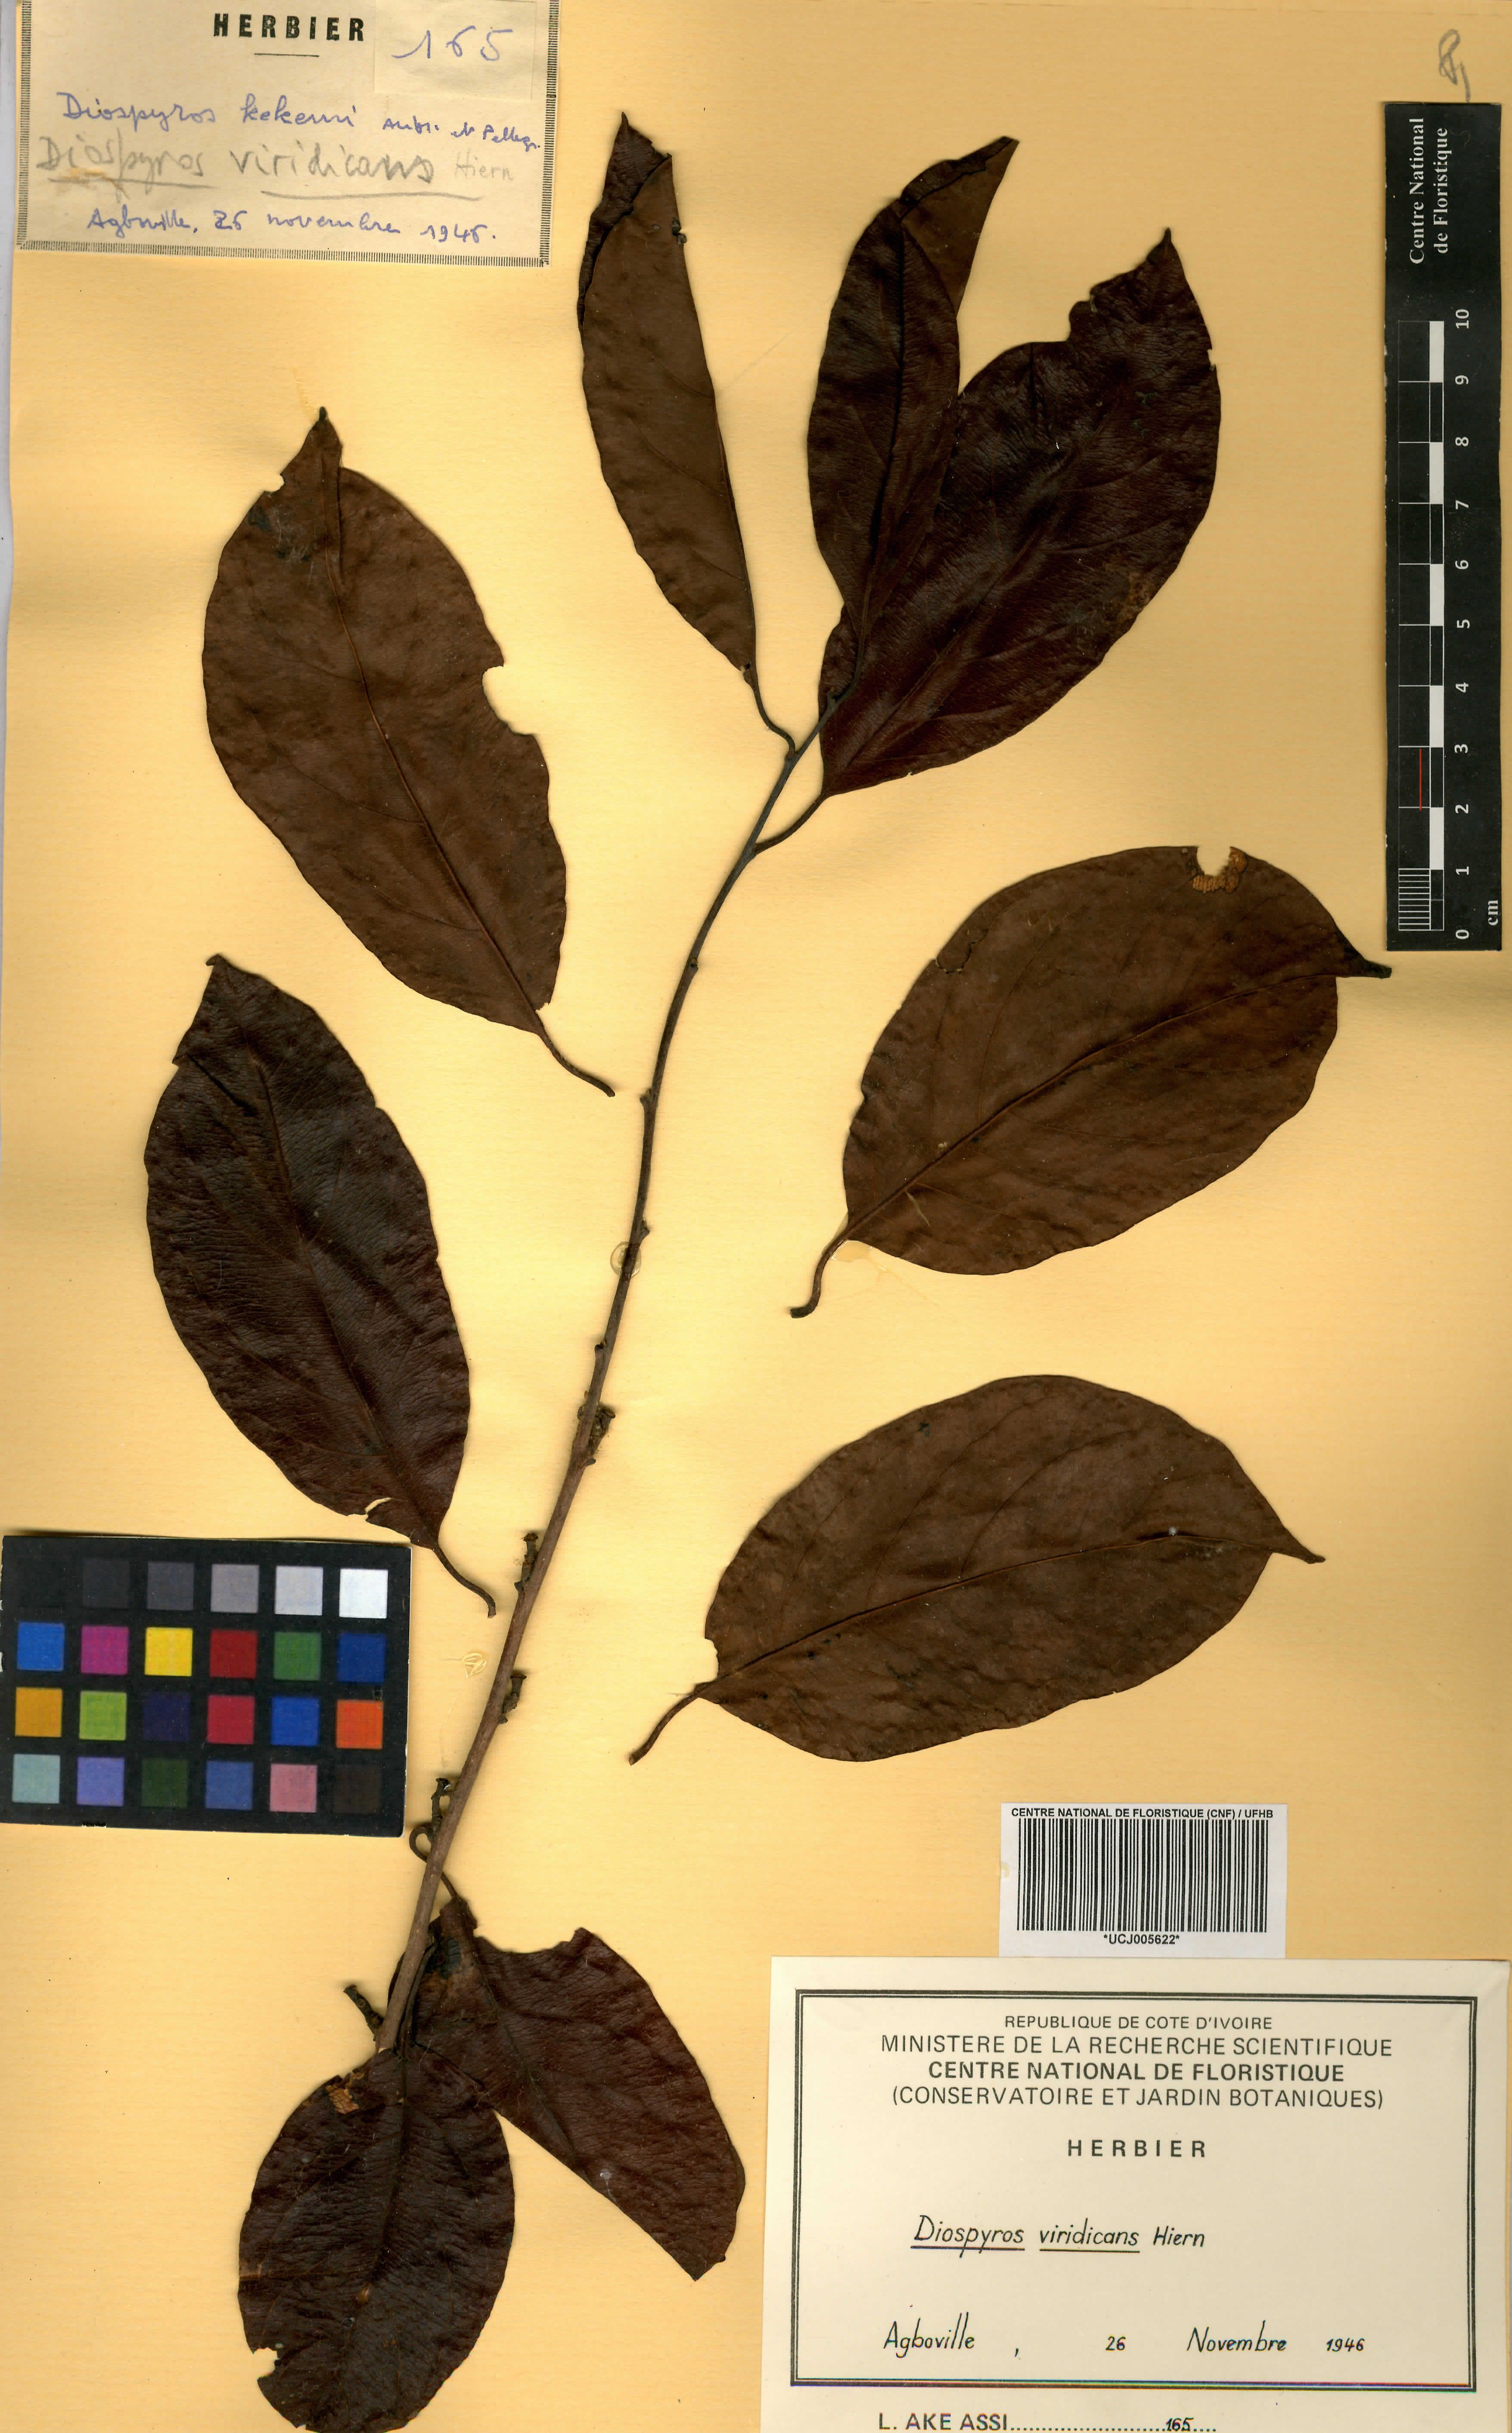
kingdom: Plantae
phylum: Tracheophyta
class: Magnoliopsida
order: Ericales
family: Ebenaceae
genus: Diospyros
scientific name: Diospyros viridicans
